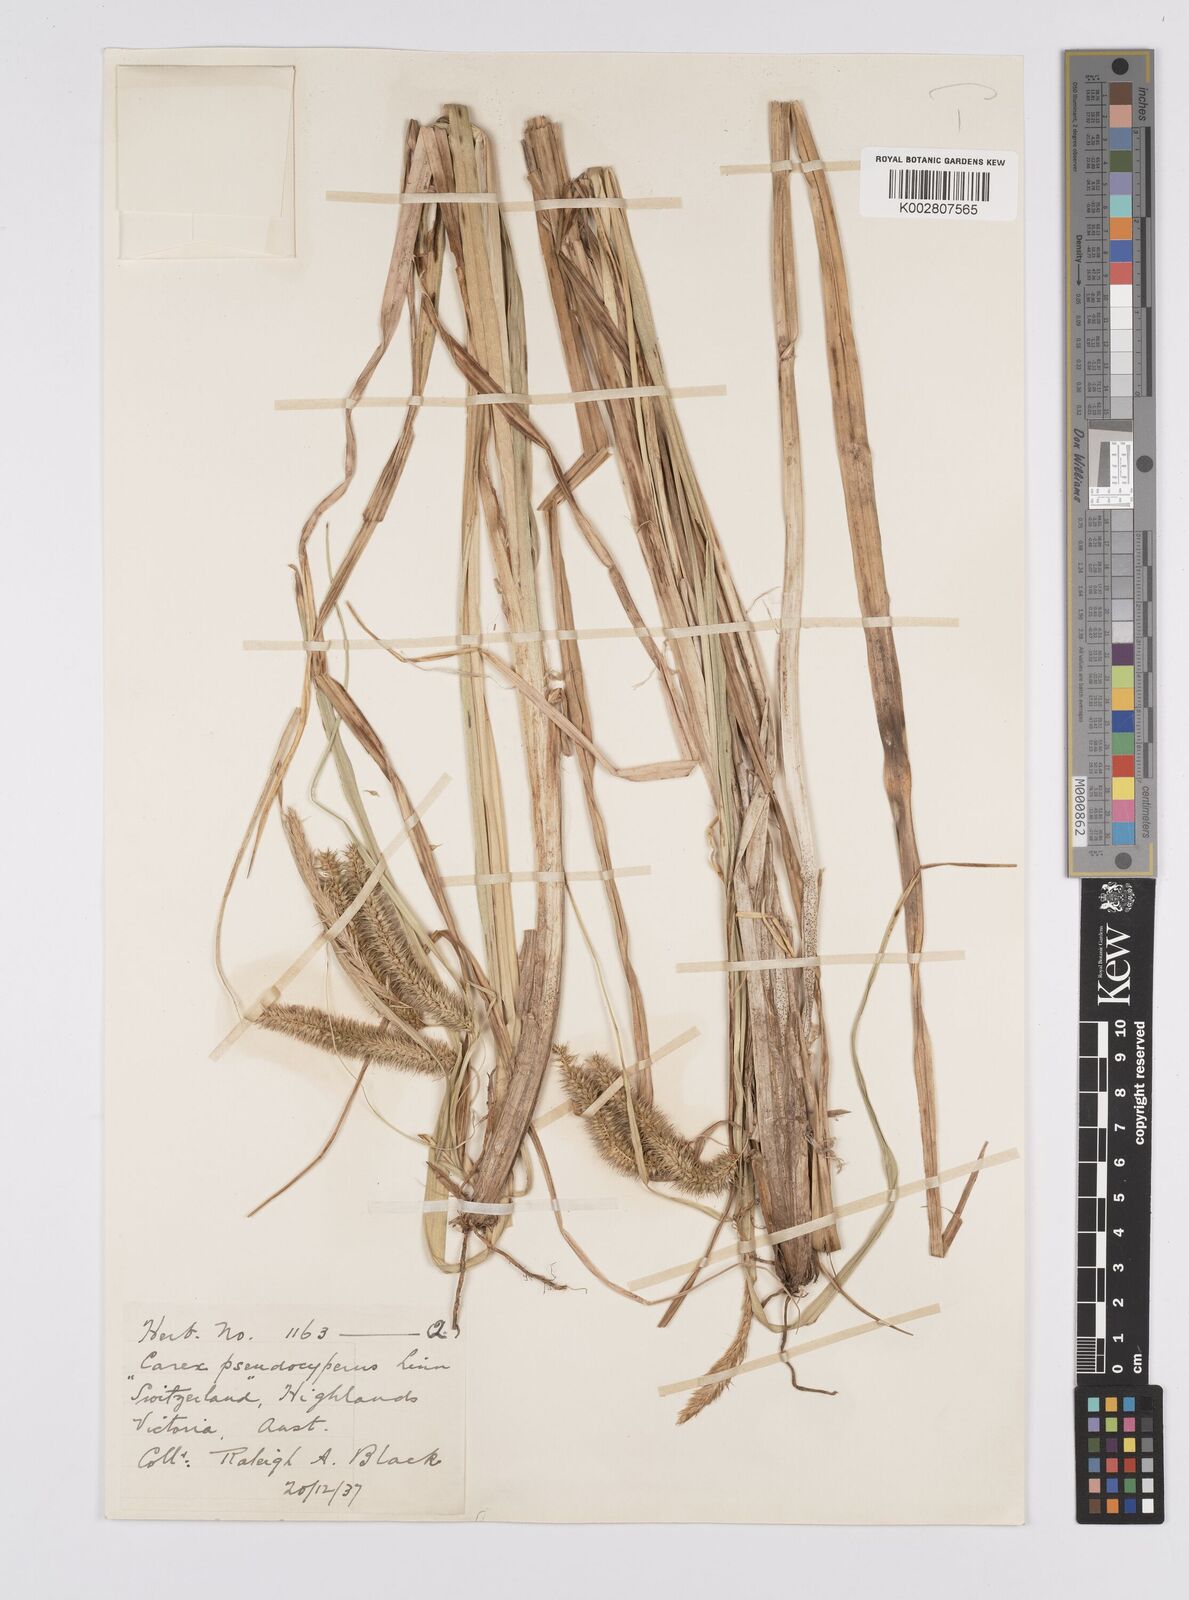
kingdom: Plantae
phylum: Tracheophyta
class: Liliopsida
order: Poales
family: Cyperaceae
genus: Carex
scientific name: Carex fascicularis
